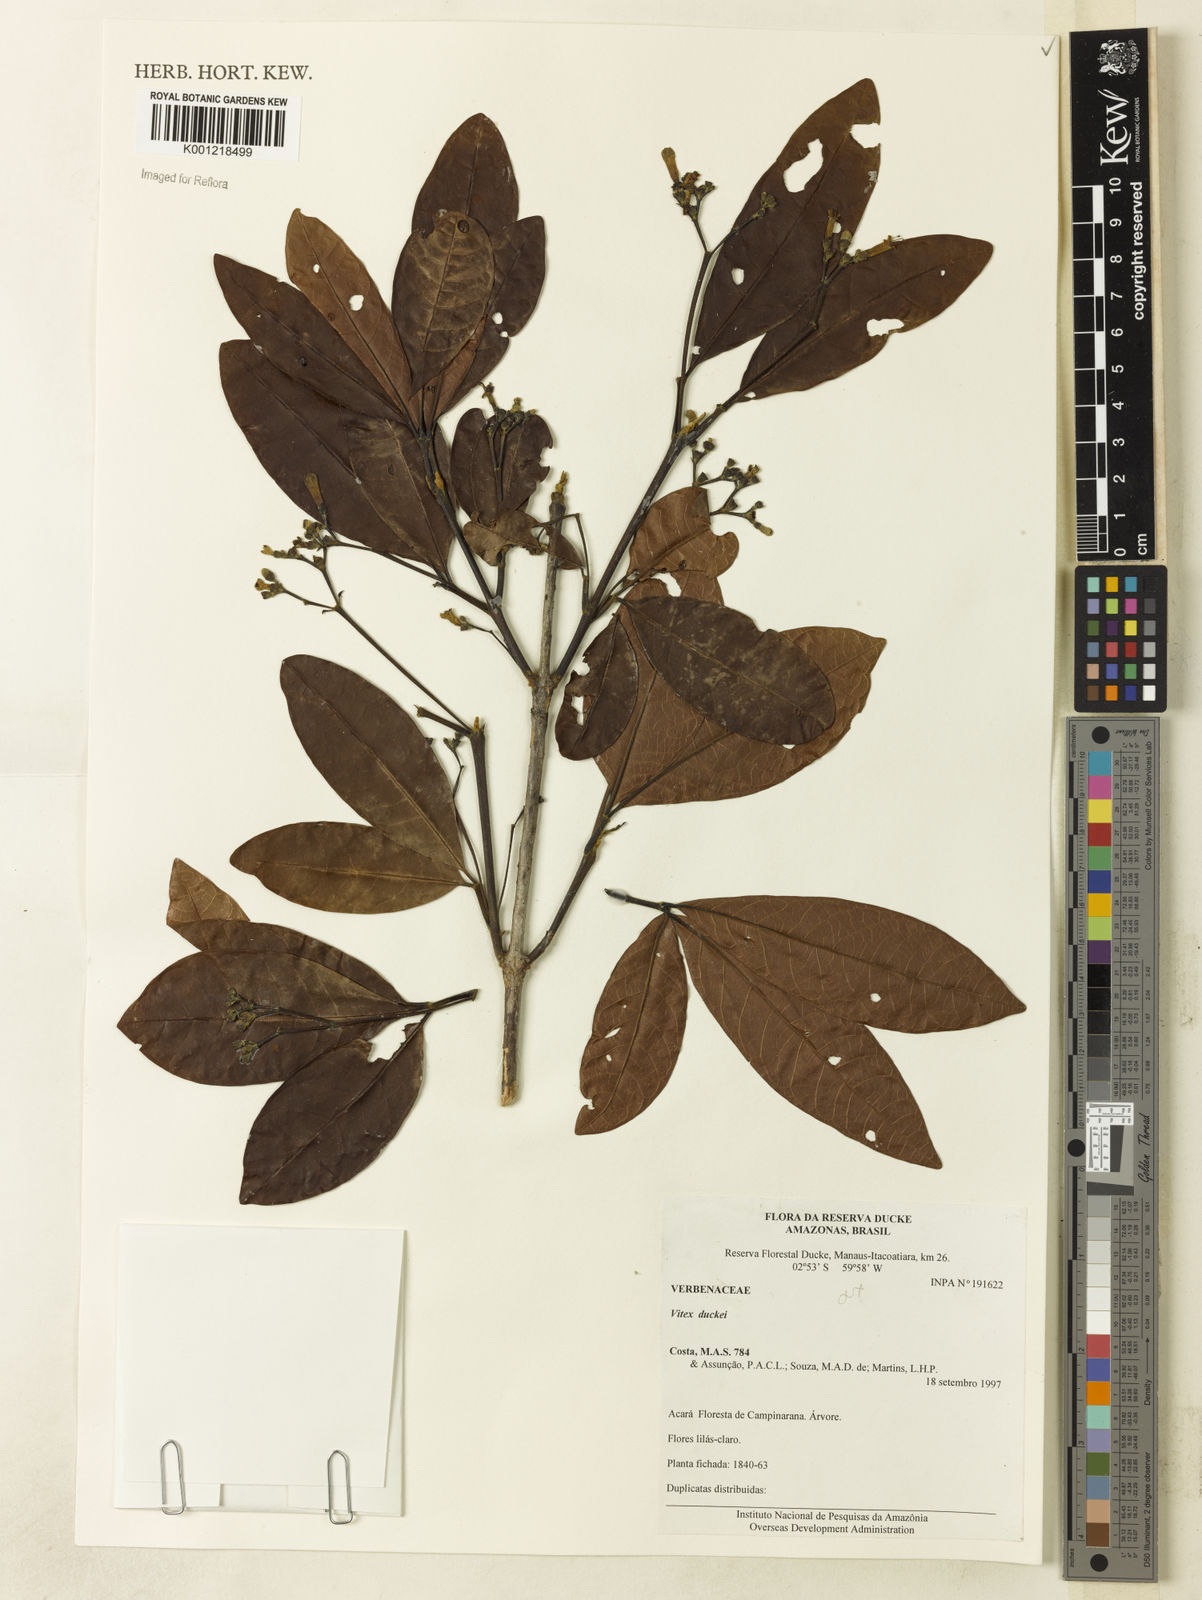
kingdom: Plantae
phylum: Tracheophyta
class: Magnoliopsida
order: Lamiales
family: Lamiaceae
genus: Vitex
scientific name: Vitex duckei
